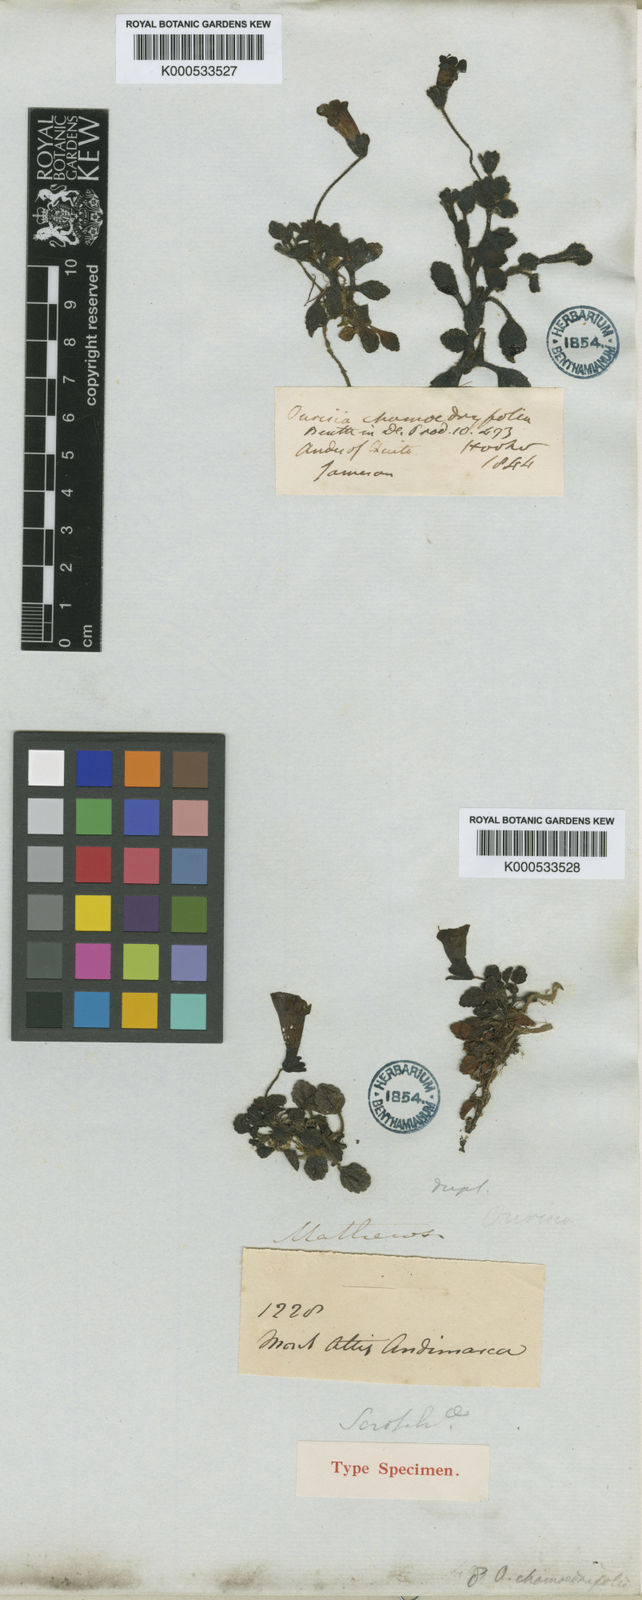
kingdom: Plantae
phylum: Tracheophyta
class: Magnoliopsida
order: Lamiales
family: Plantaginaceae
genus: Ourisia
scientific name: Ourisia chamaedrifolia
